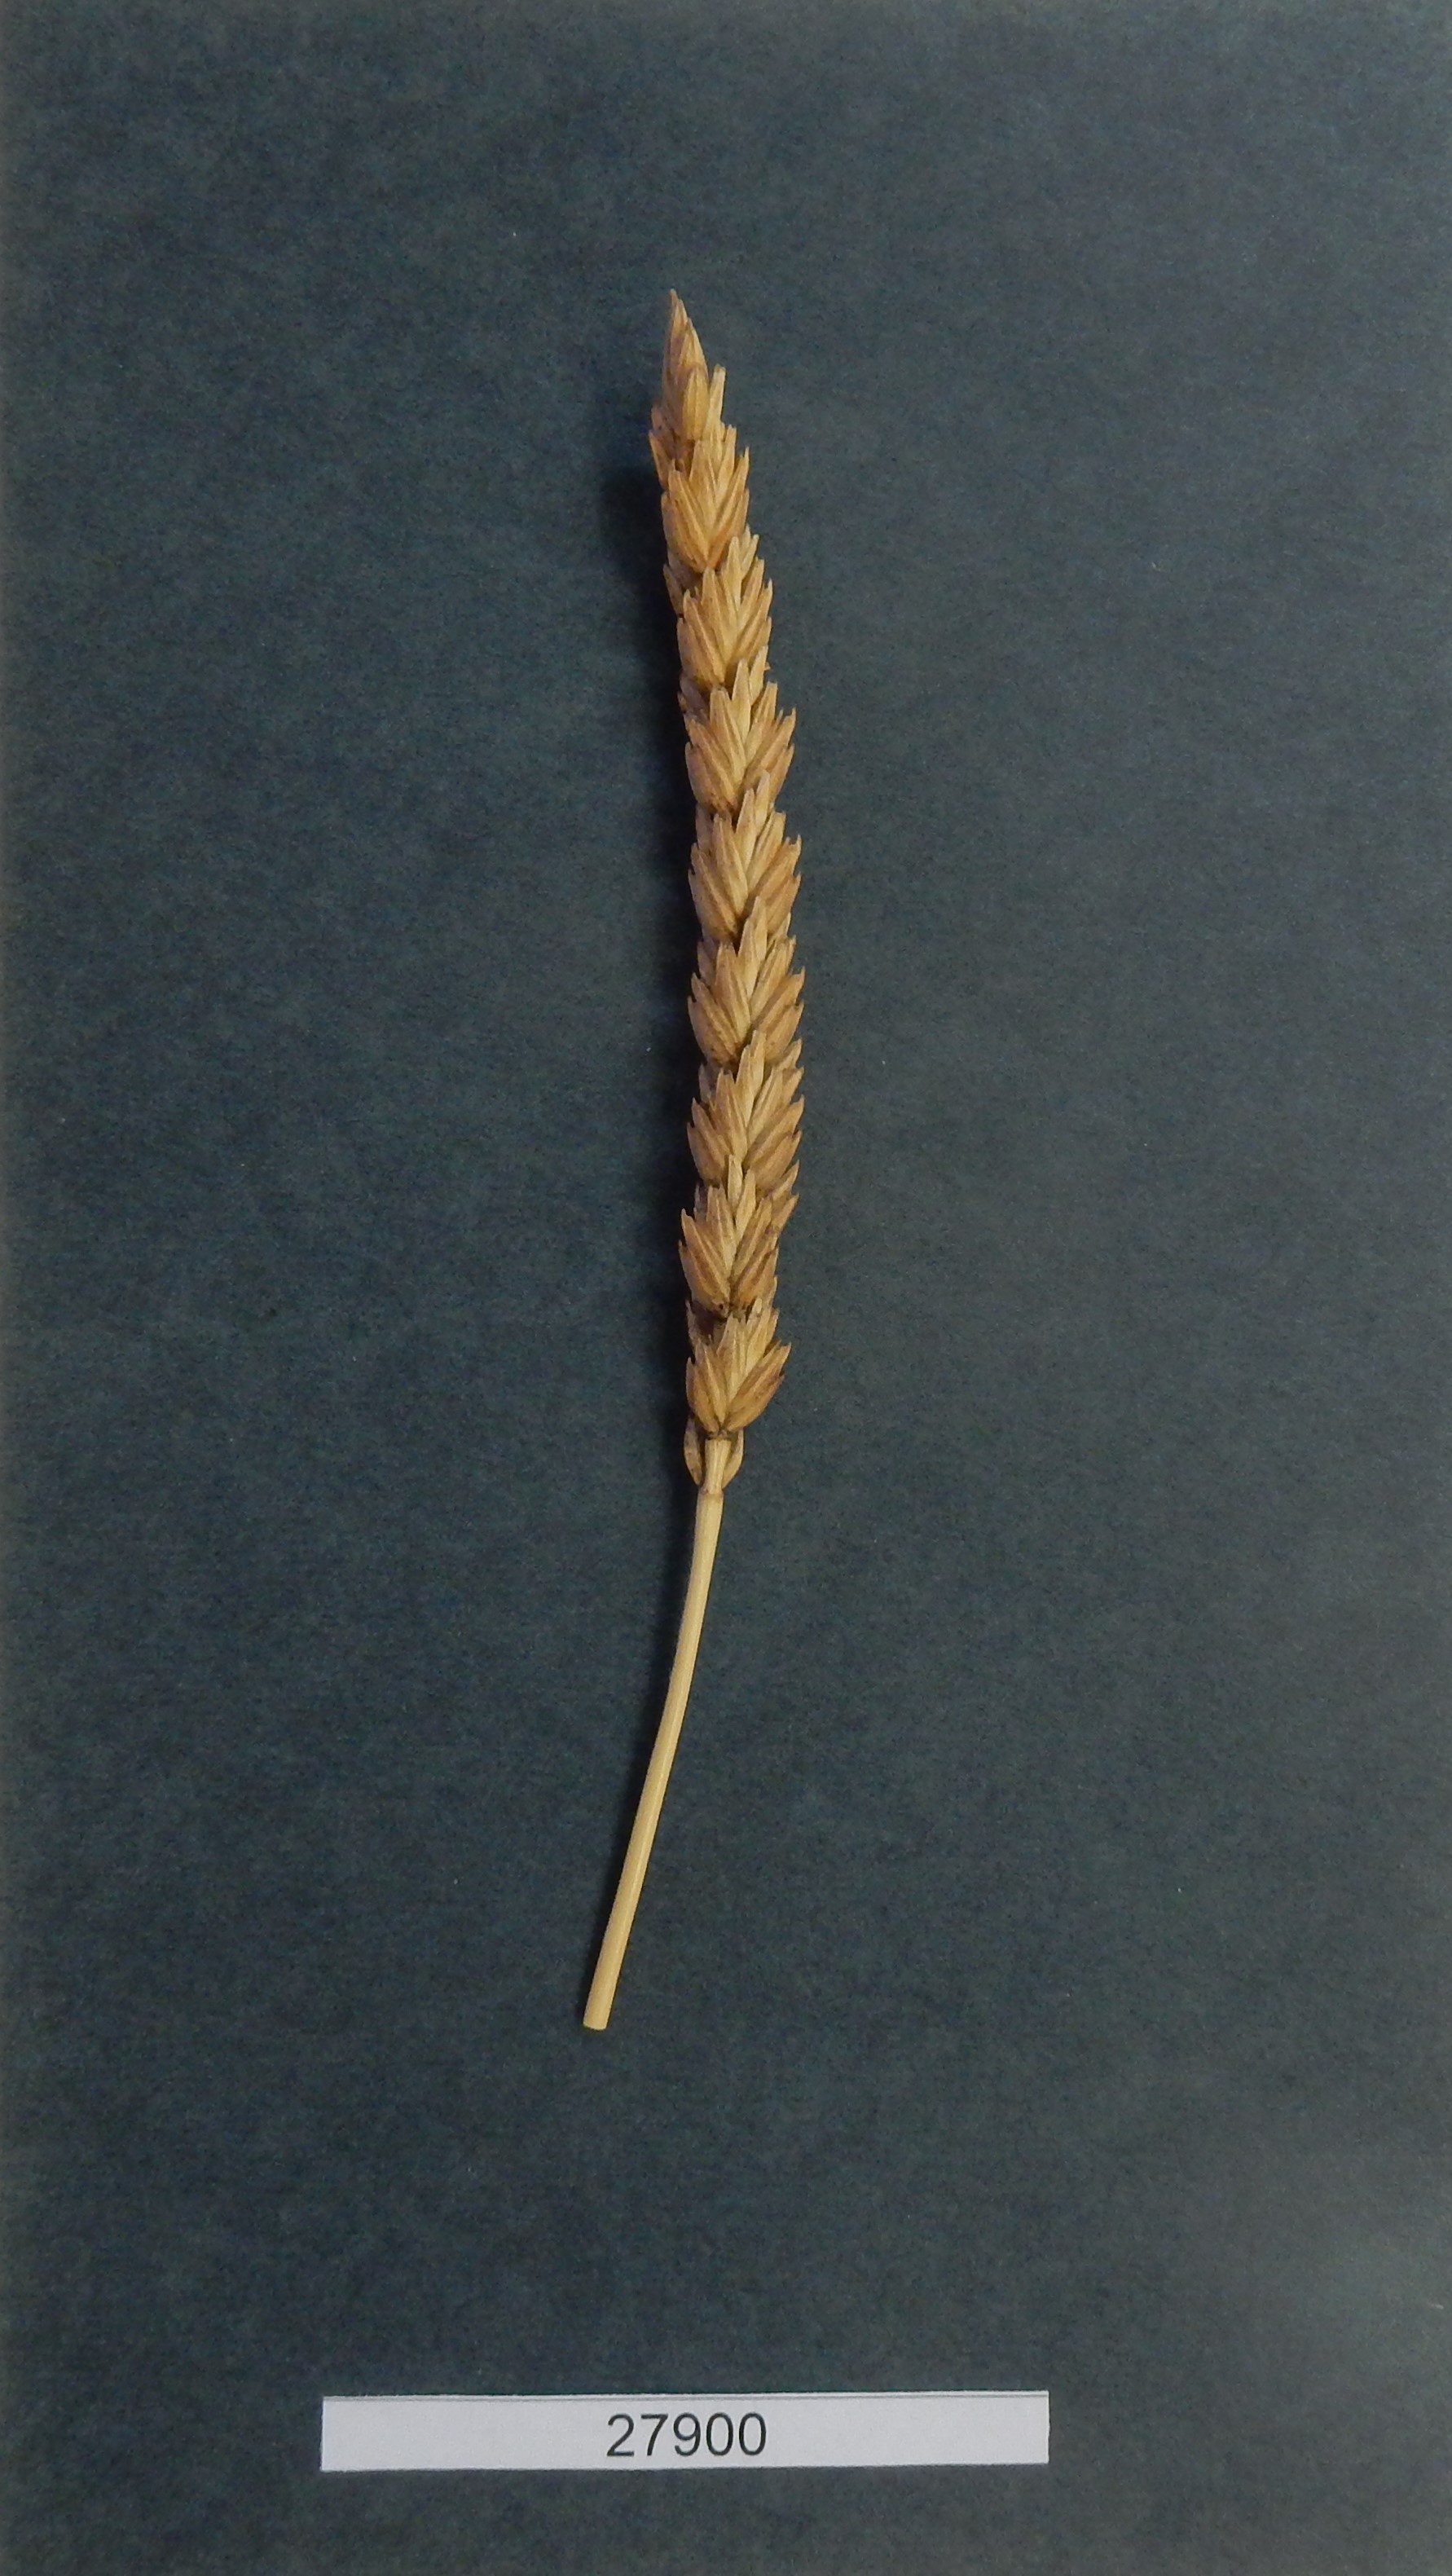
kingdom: Plantae
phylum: Tracheophyta
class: Liliopsida
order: Poales
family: Poaceae
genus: Triticum
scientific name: Triticum aestivum
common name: Common wheat
